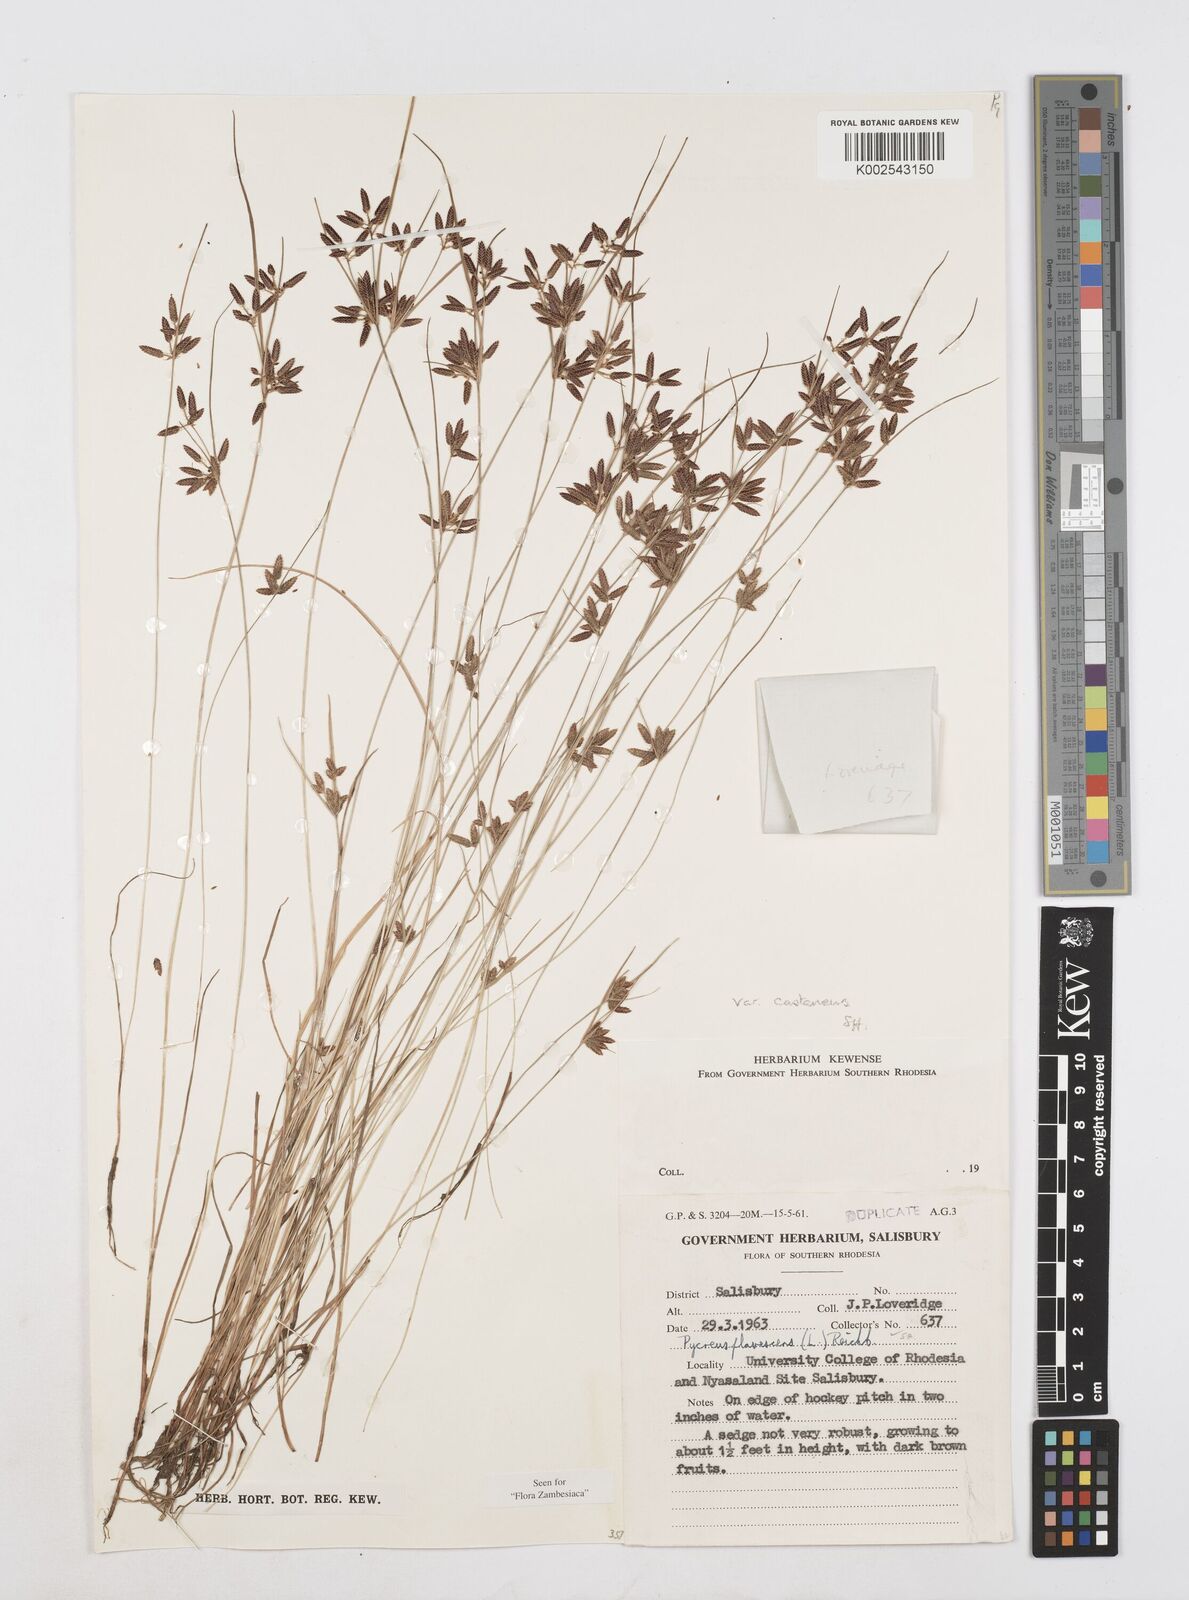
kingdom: Plantae
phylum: Tracheophyta
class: Liliopsida
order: Poales
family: Cyperaceae
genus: Cyperus
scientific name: Cyperus flavescens
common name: Yellow galingale
